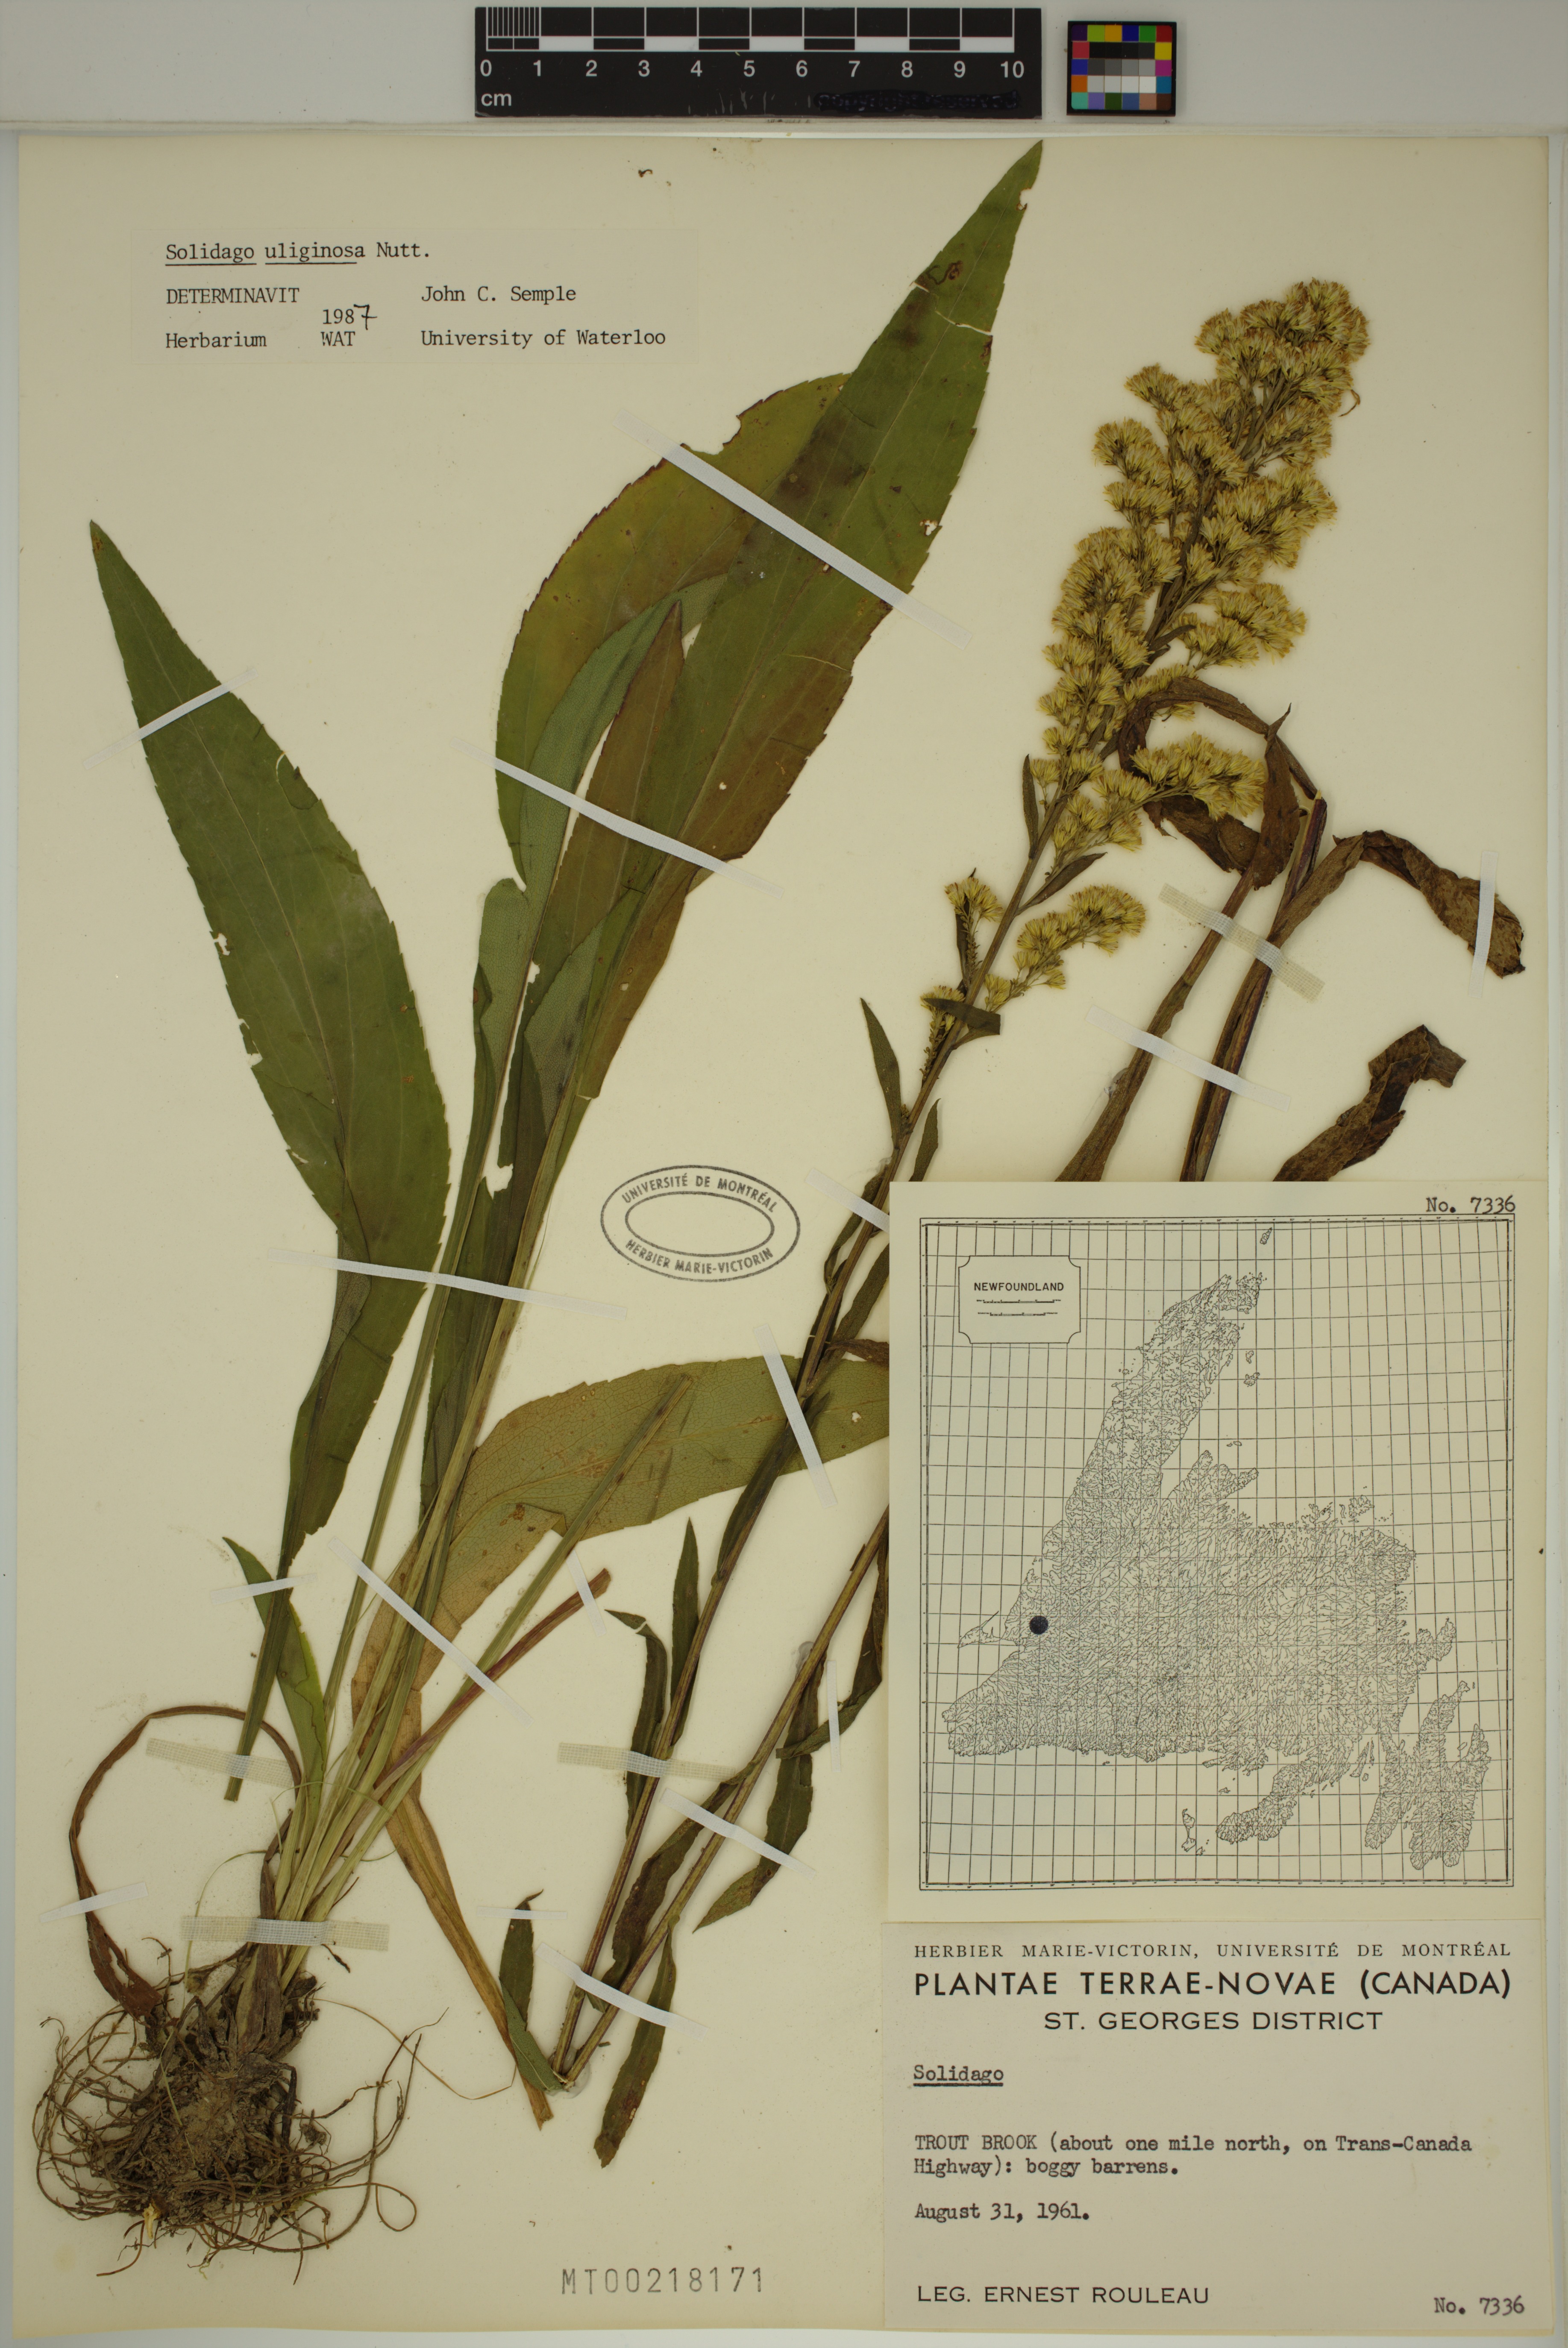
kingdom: Plantae
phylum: Tracheophyta
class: Magnoliopsida
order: Asterales
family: Asteraceae
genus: Solidago
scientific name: Solidago uliginosa
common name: Bog goldenrod
